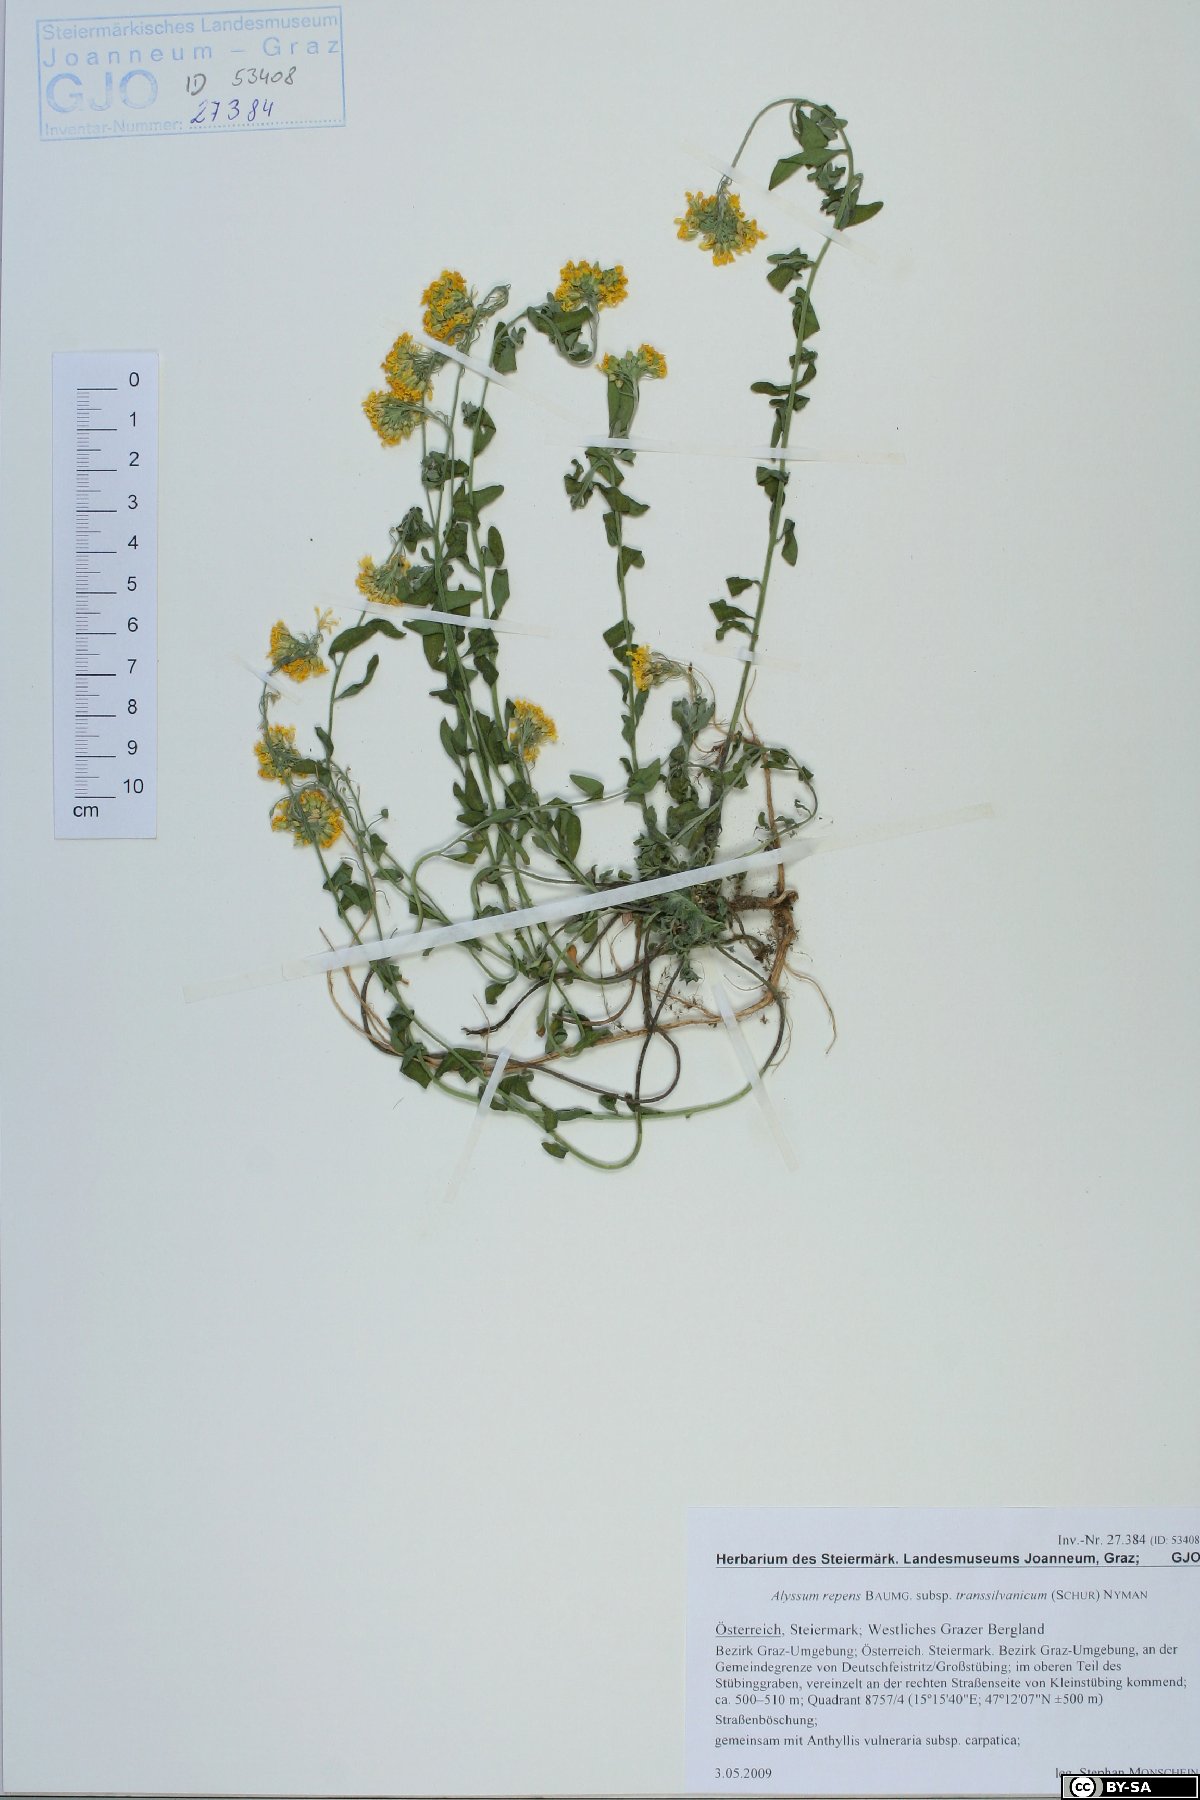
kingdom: Plantae
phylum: Tracheophyta
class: Magnoliopsida
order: Brassicales
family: Brassicaceae
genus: Alyssum
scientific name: Alyssum repens
